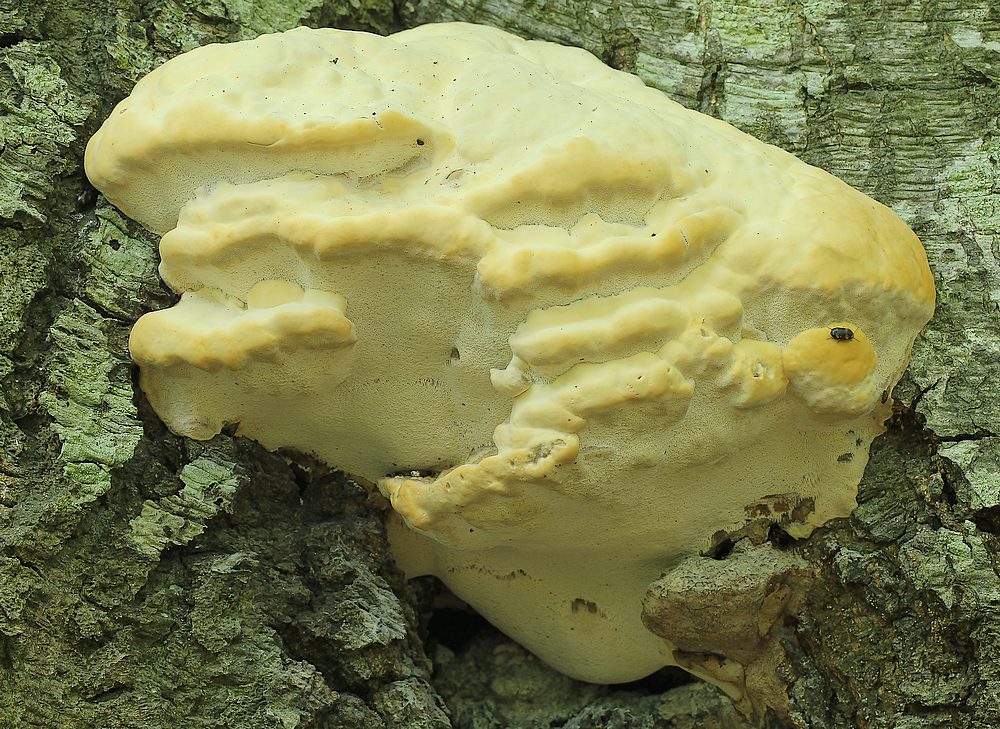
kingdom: Fungi
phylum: Basidiomycota
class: Agaricomycetes
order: Polyporales
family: Polyporaceae
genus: Vanderbylia
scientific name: Vanderbylia fraxinea
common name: stor kanelporesvamp
